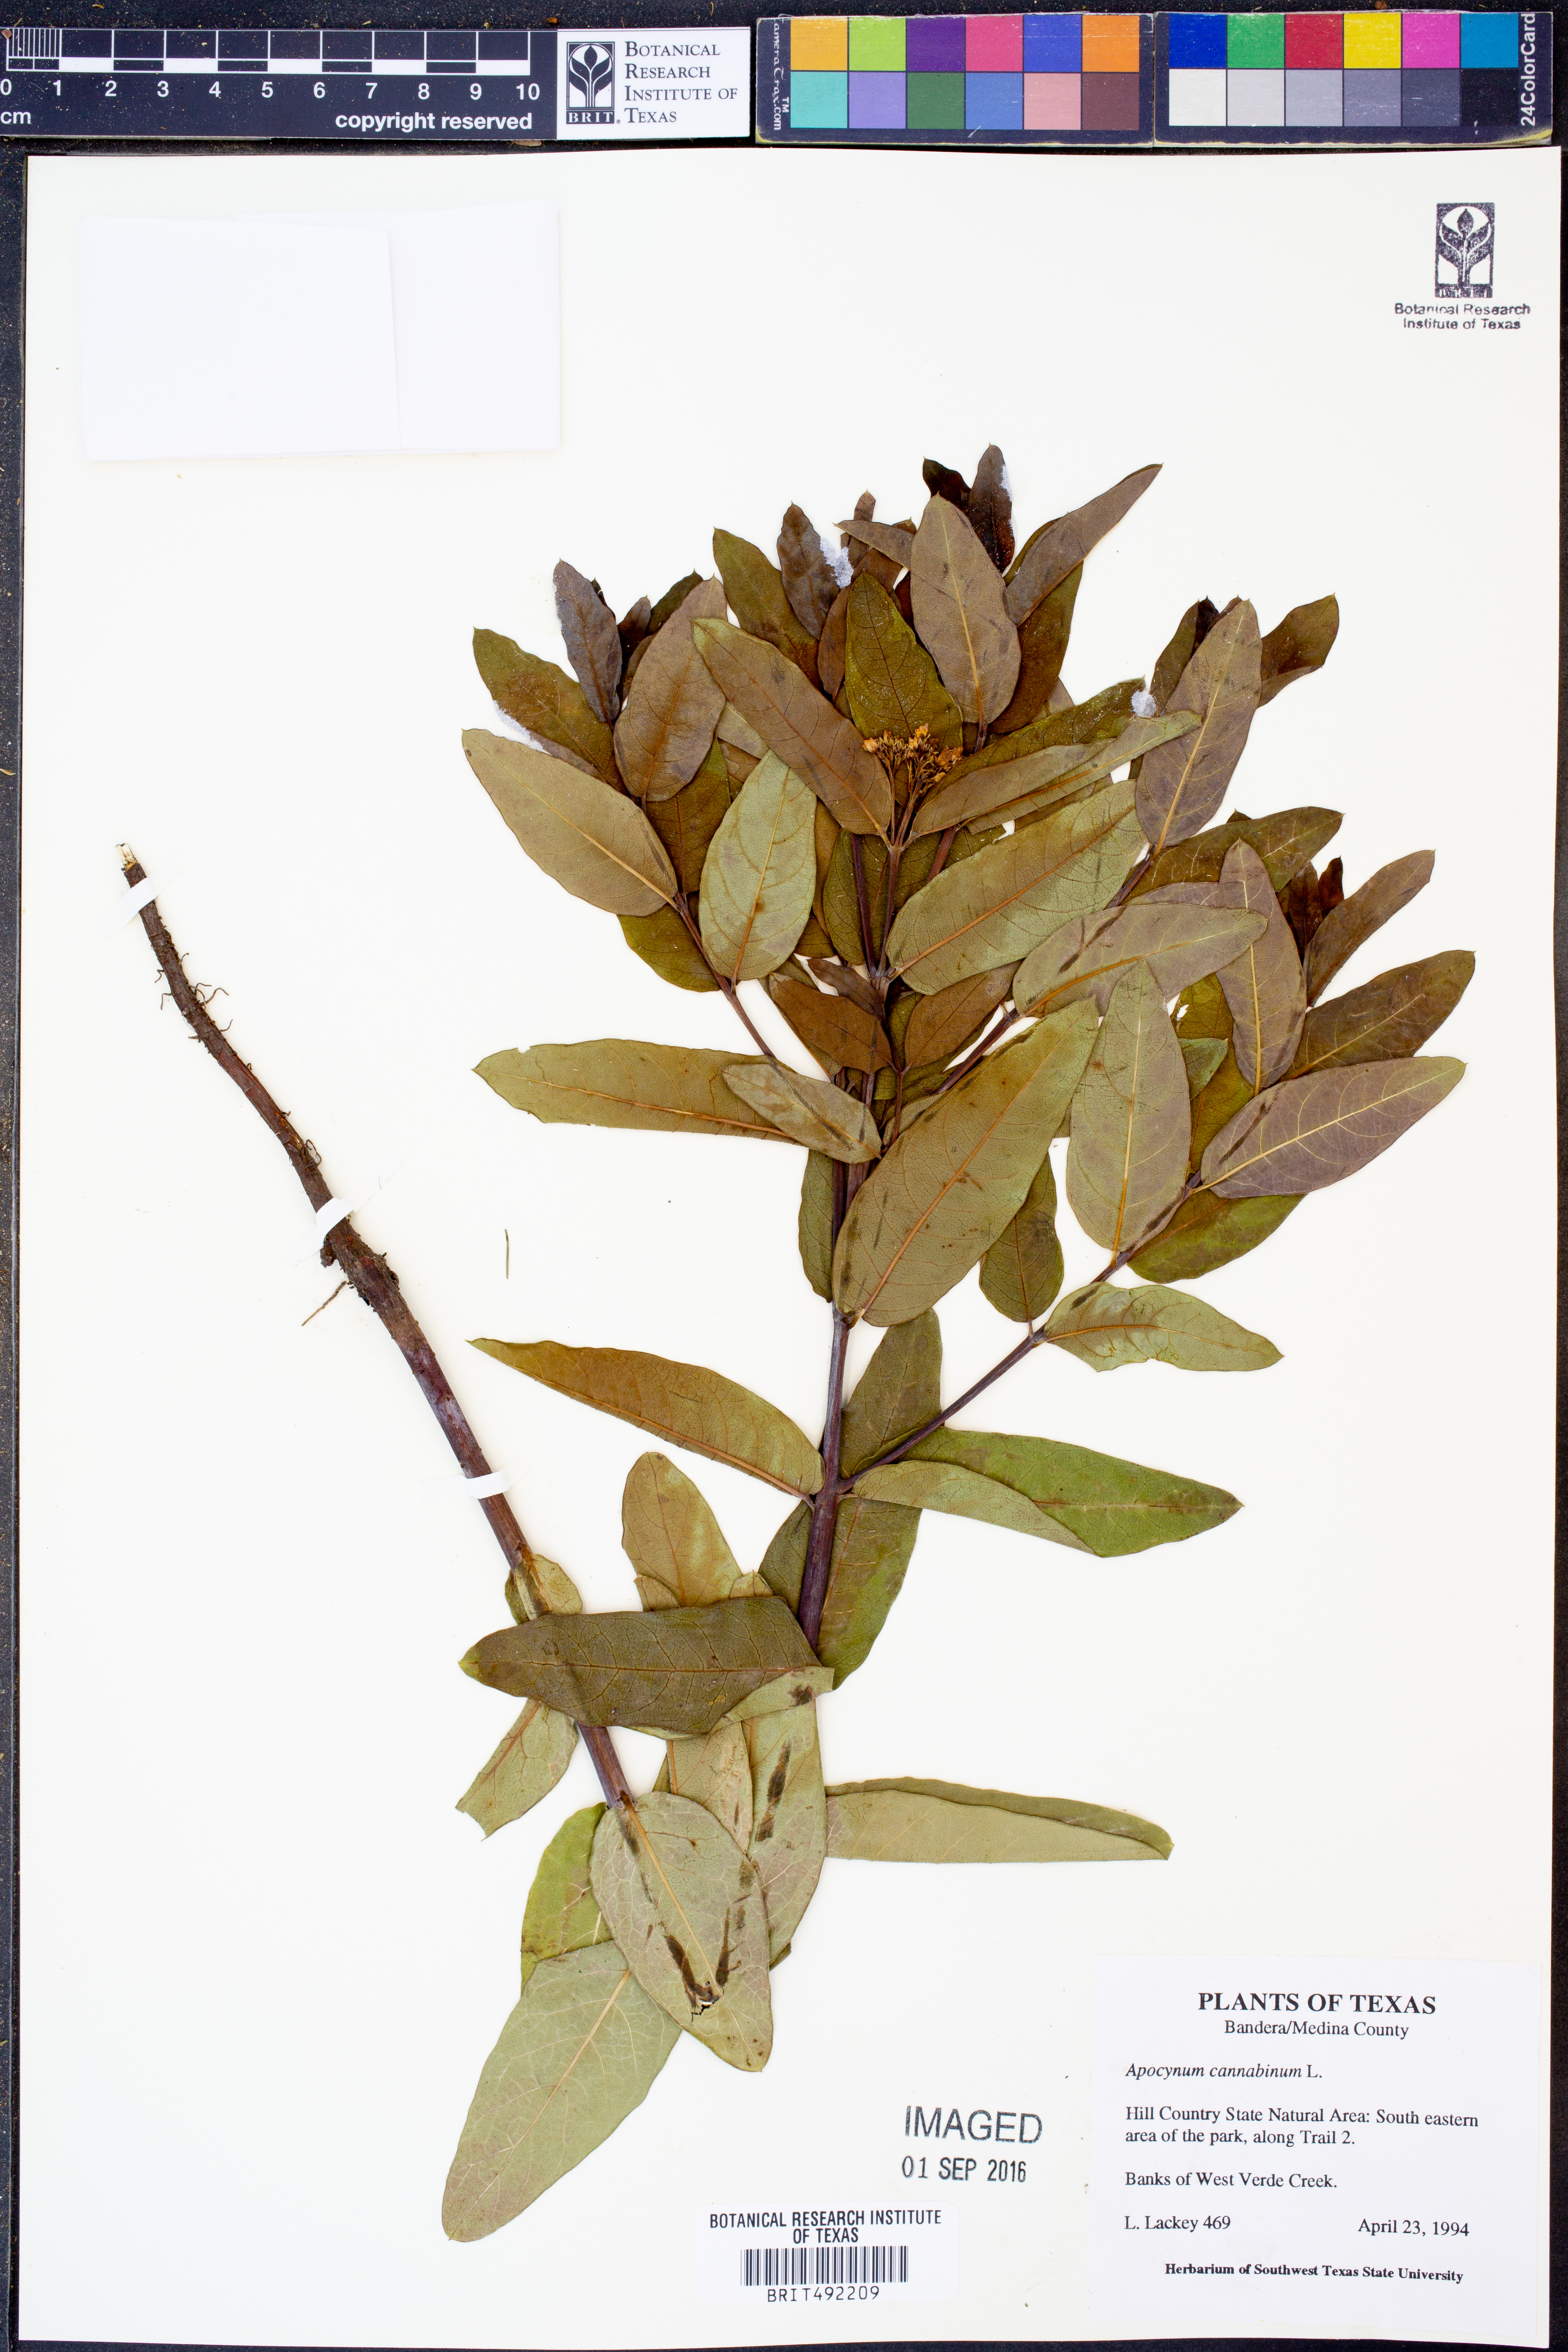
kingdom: Plantae
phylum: Tracheophyta
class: Magnoliopsida
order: Gentianales
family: Apocynaceae
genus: Apocynum
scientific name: Apocynum cannabinum
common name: Hemp dogbane
